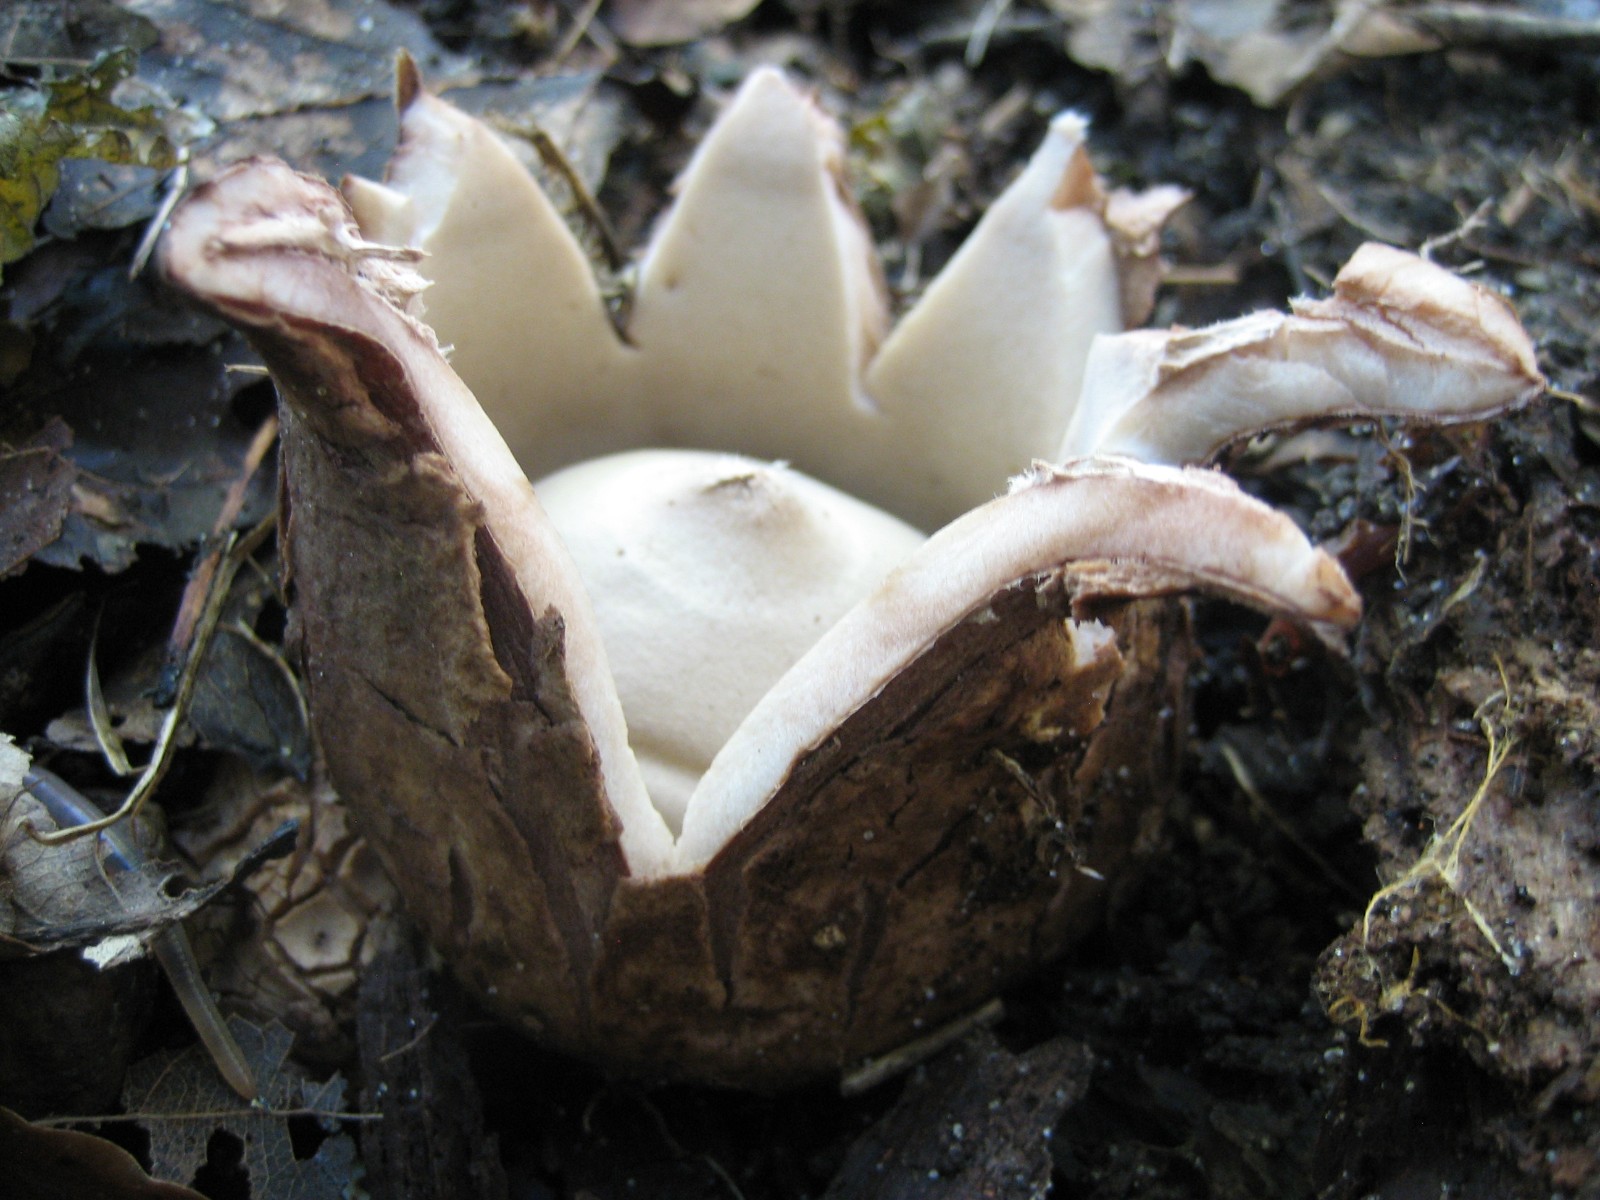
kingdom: Fungi
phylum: Basidiomycota
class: Agaricomycetes
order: Geastrales
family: Geastraceae
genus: Geastrum
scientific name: Geastrum michelianum
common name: kødet stjernebold
